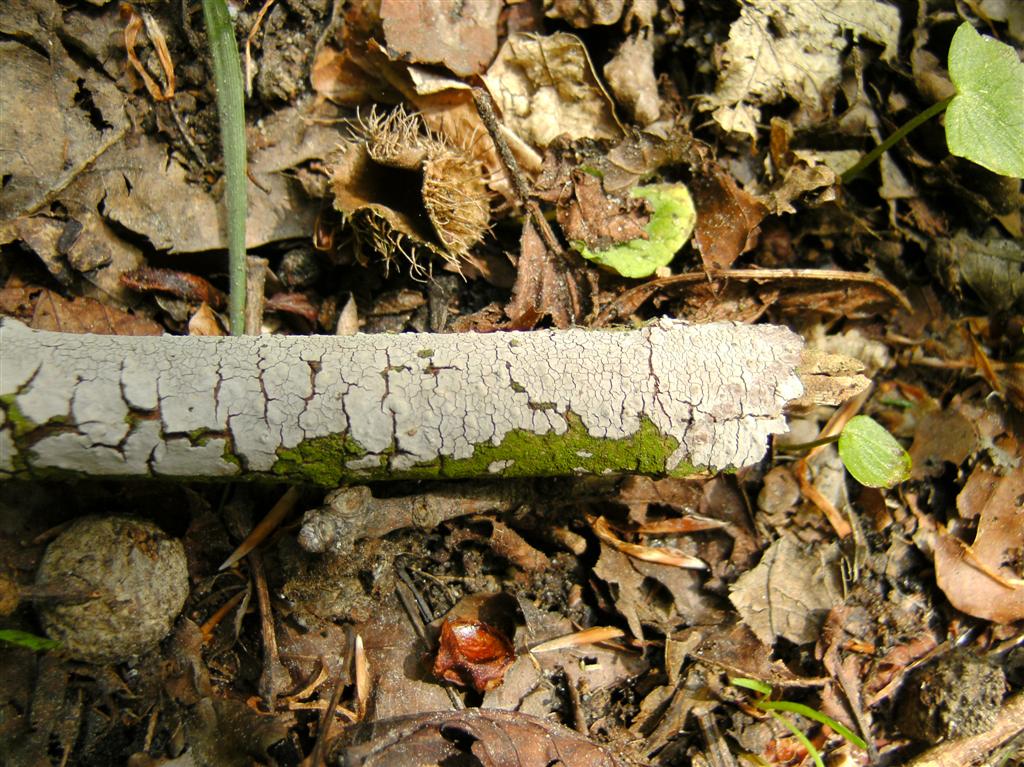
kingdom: Fungi
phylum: Basidiomycota
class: Agaricomycetes
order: Russulales
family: Peniophoraceae
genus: Peniophora
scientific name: Peniophora cinerea
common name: grå voksskind
